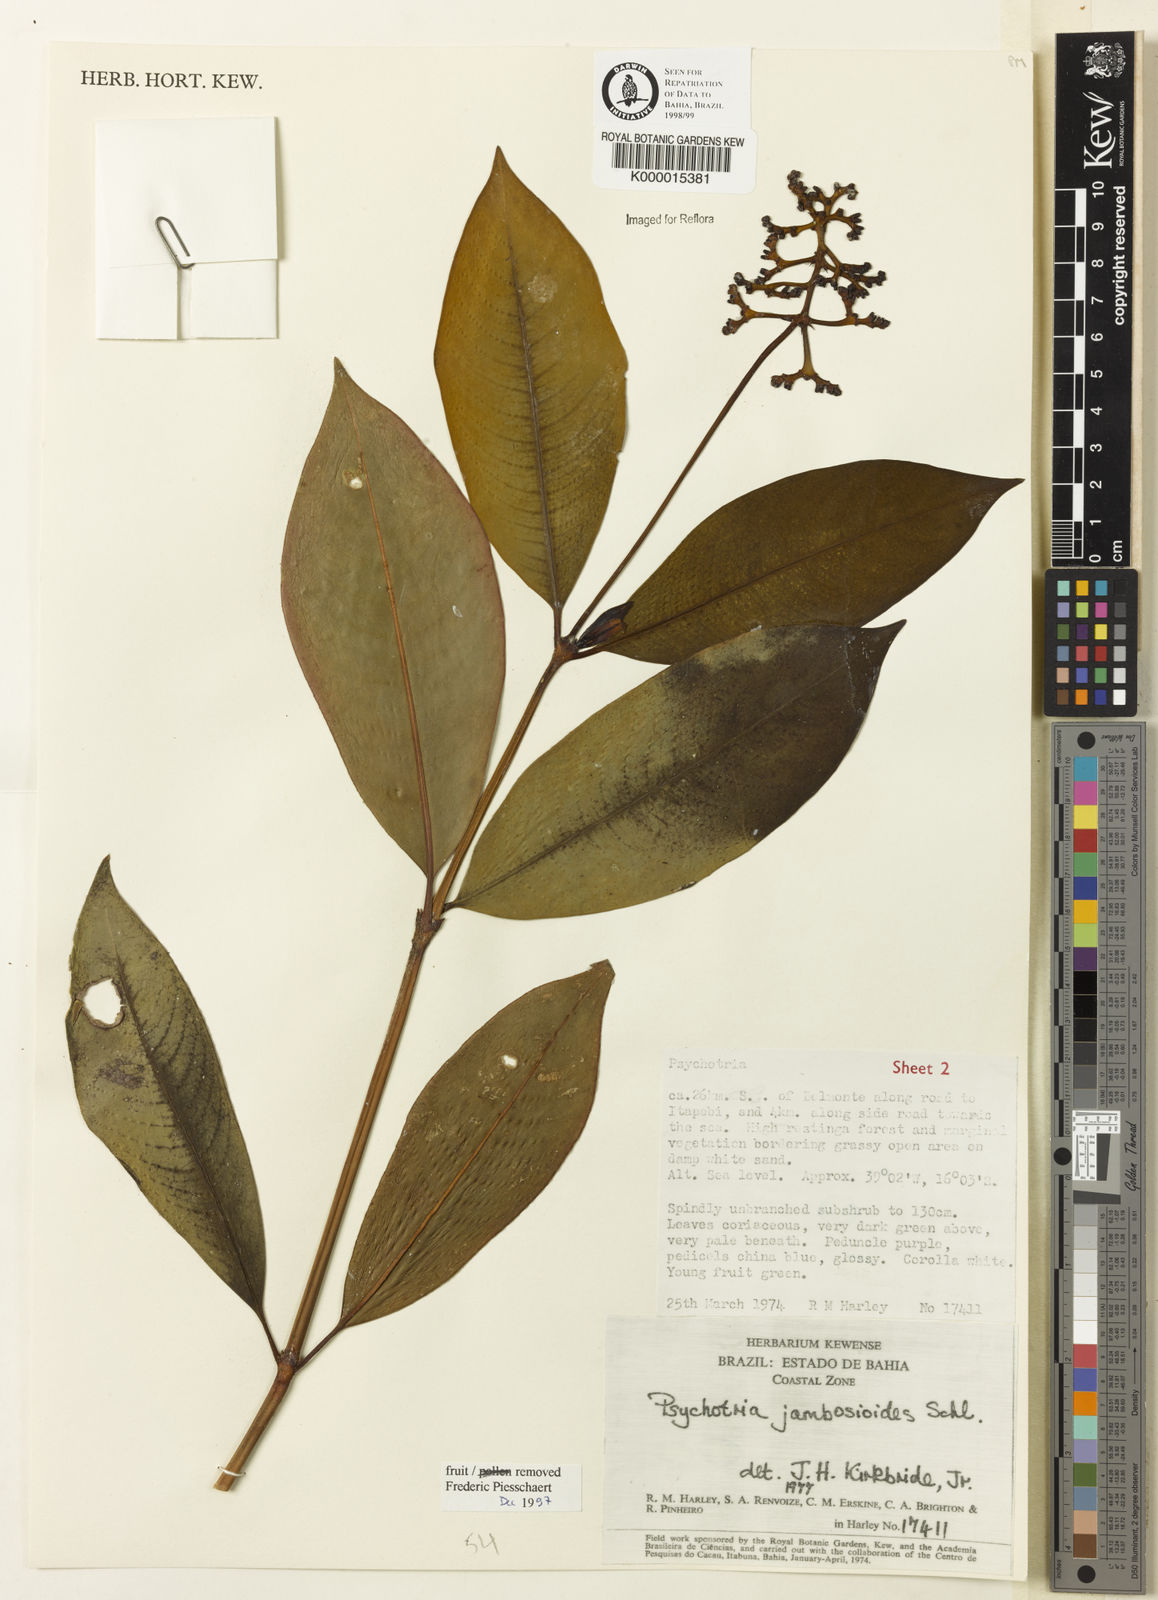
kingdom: Plantae
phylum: Tracheophyta
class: Magnoliopsida
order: Gentianales
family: Rubiaceae
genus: Palicourea
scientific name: Palicourea jambosioides
